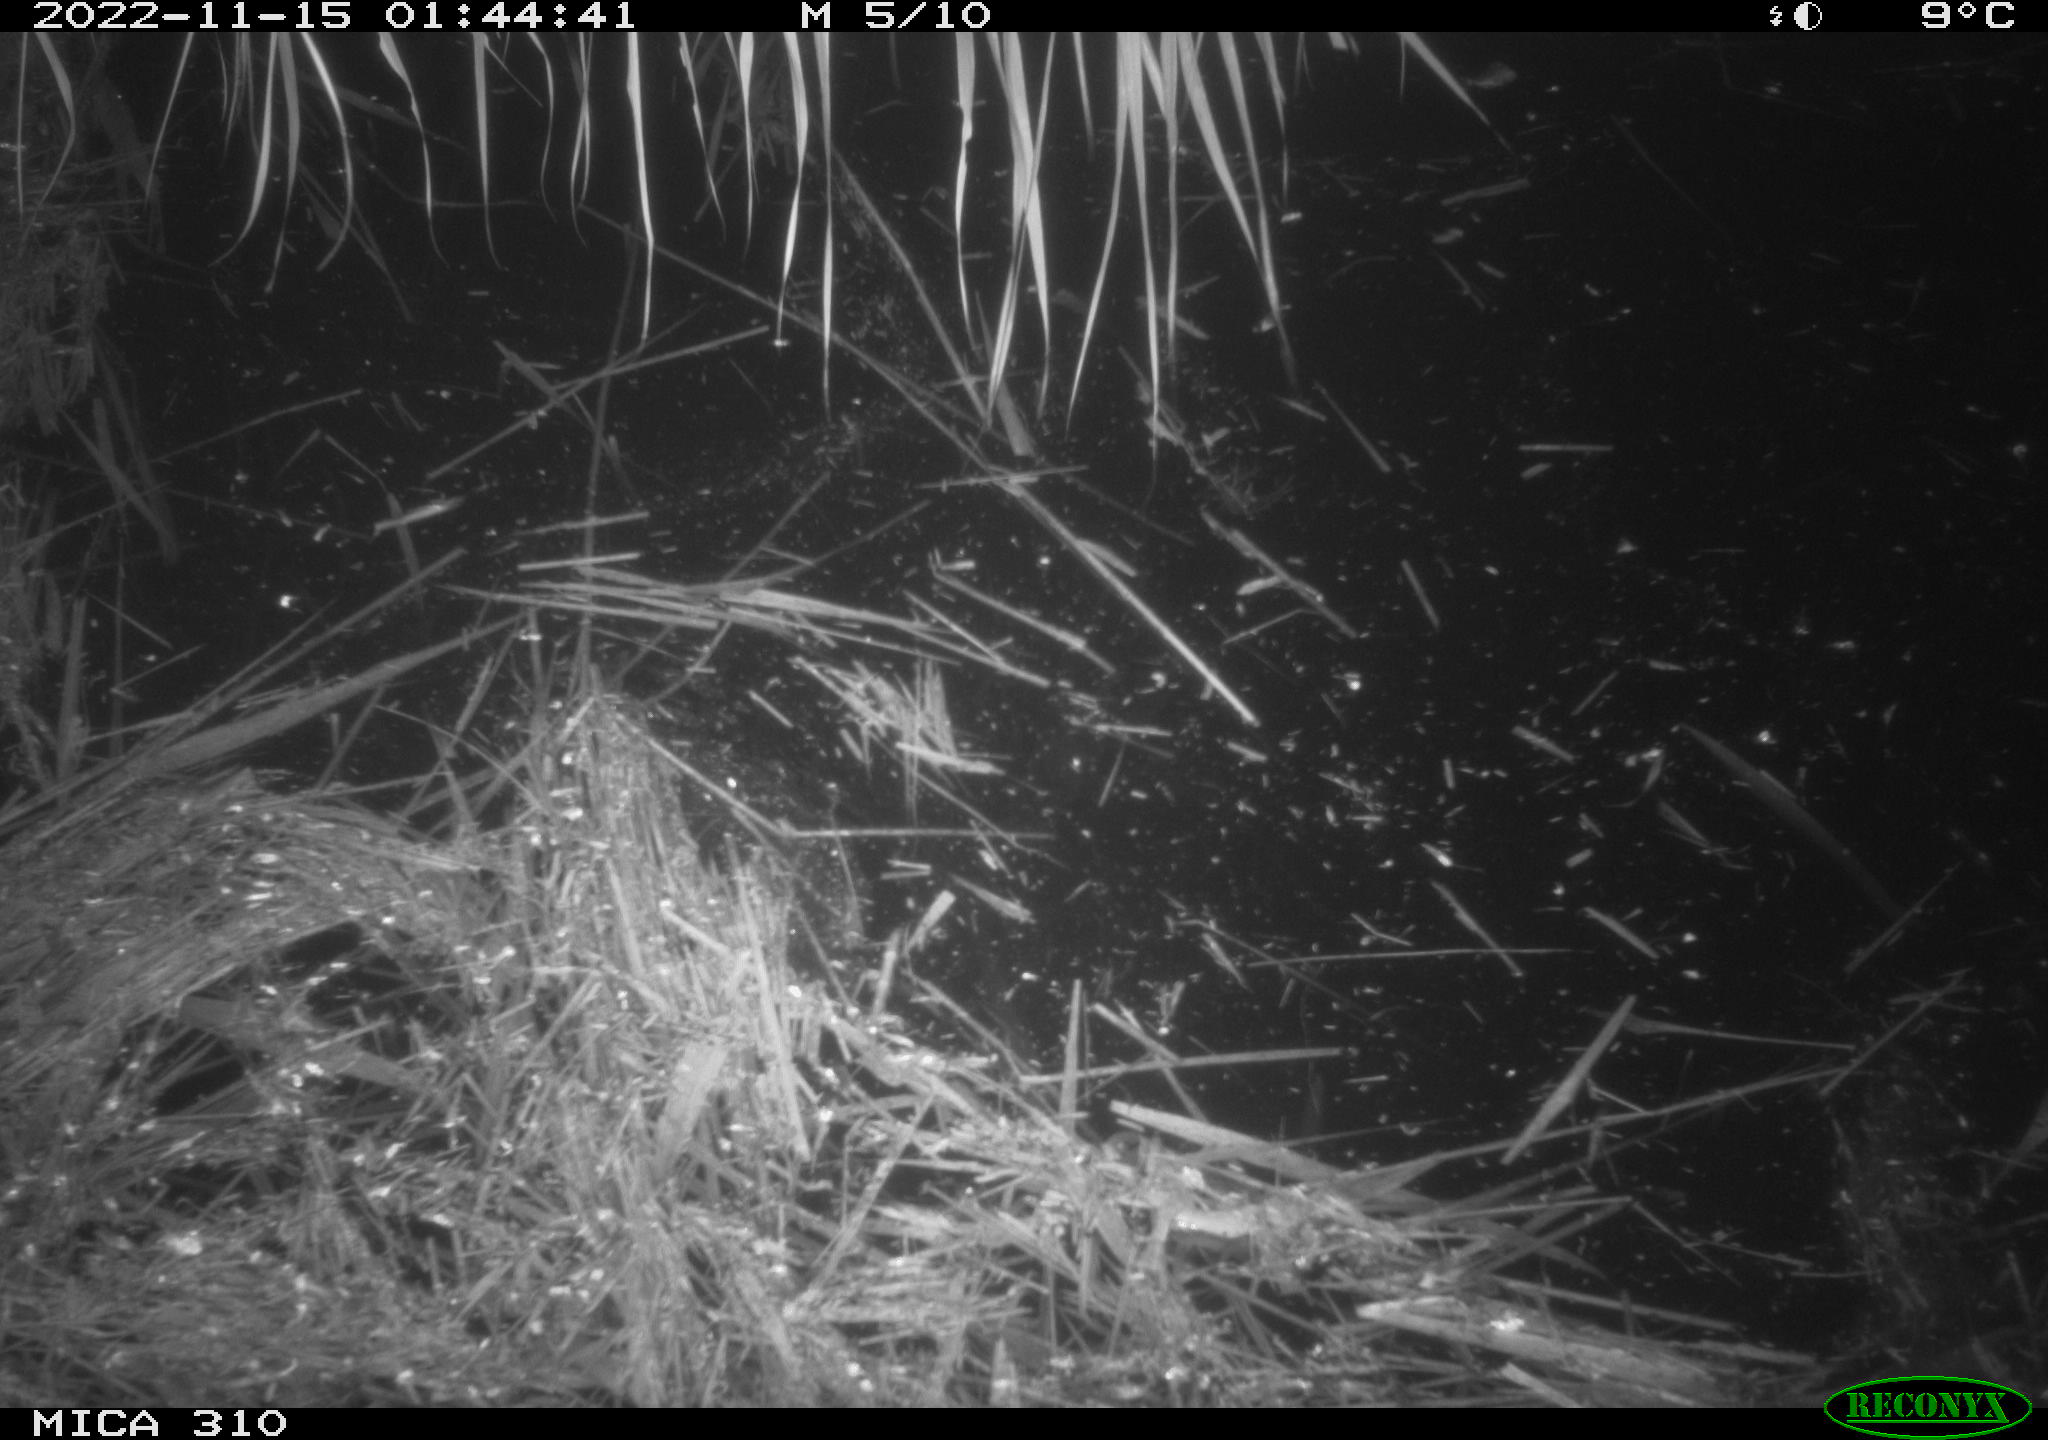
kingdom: Animalia
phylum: Chordata
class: Mammalia
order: Rodentia
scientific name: Rodentia
